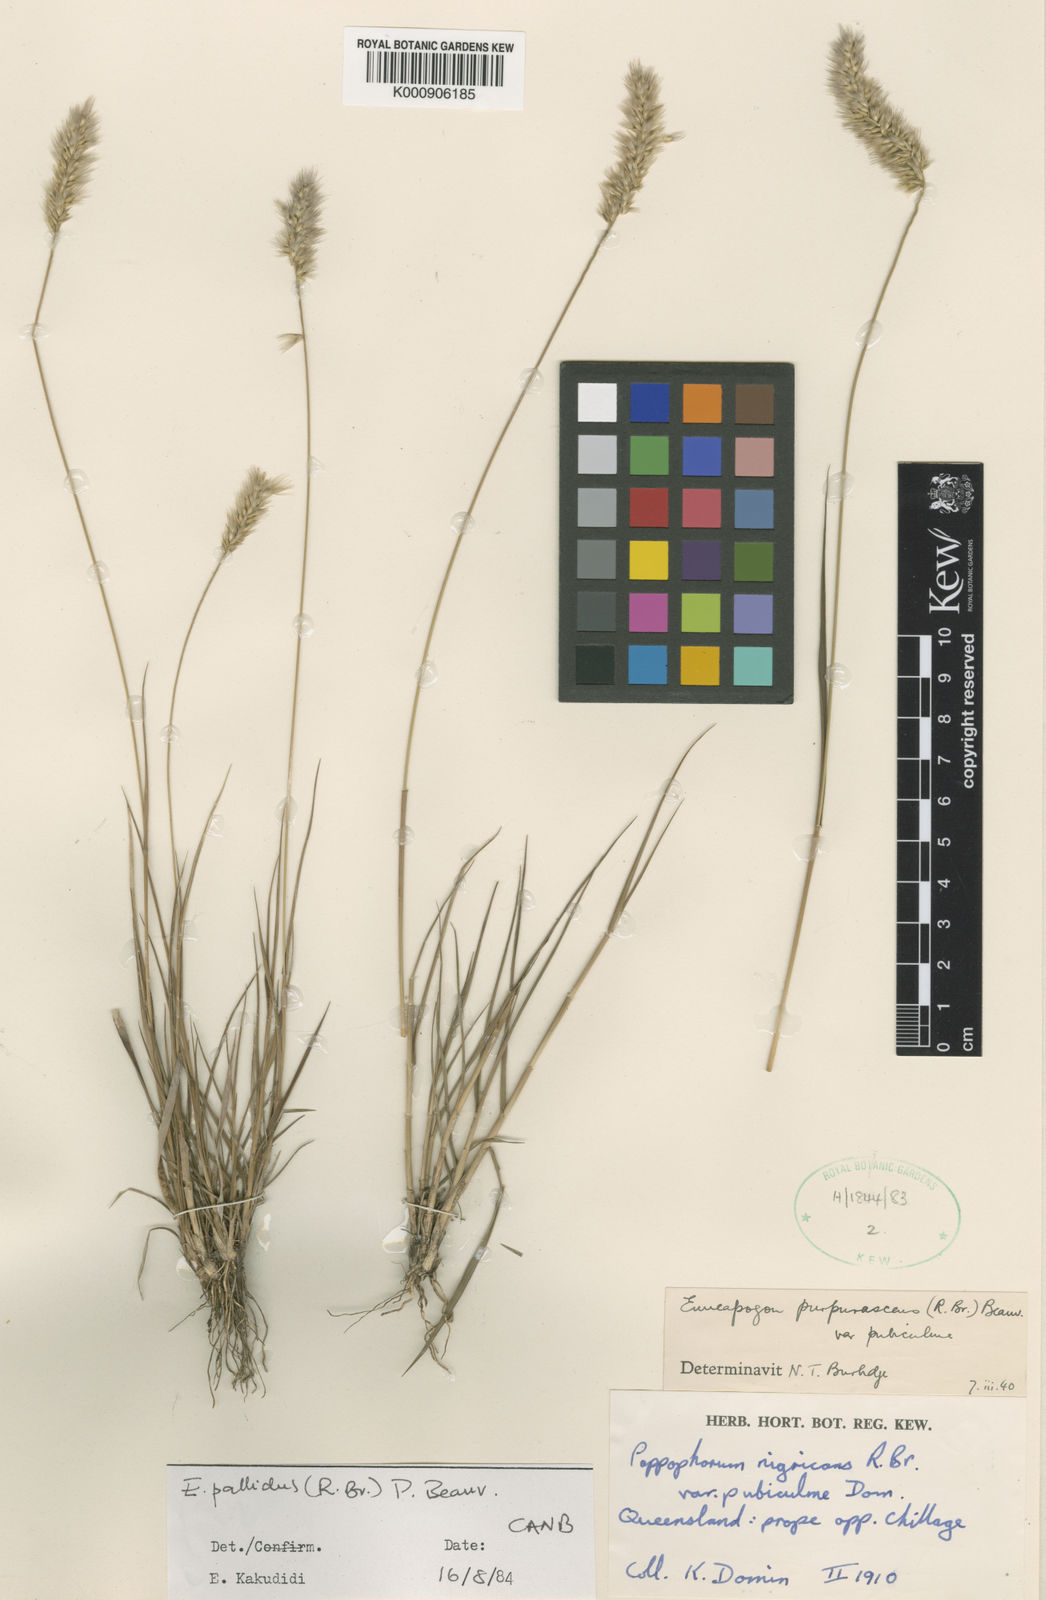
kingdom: Plantae
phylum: Tracheophyta
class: Liliopsida
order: Poales
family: Poaceae
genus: Enneapogon
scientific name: Enneapogon pallidus
